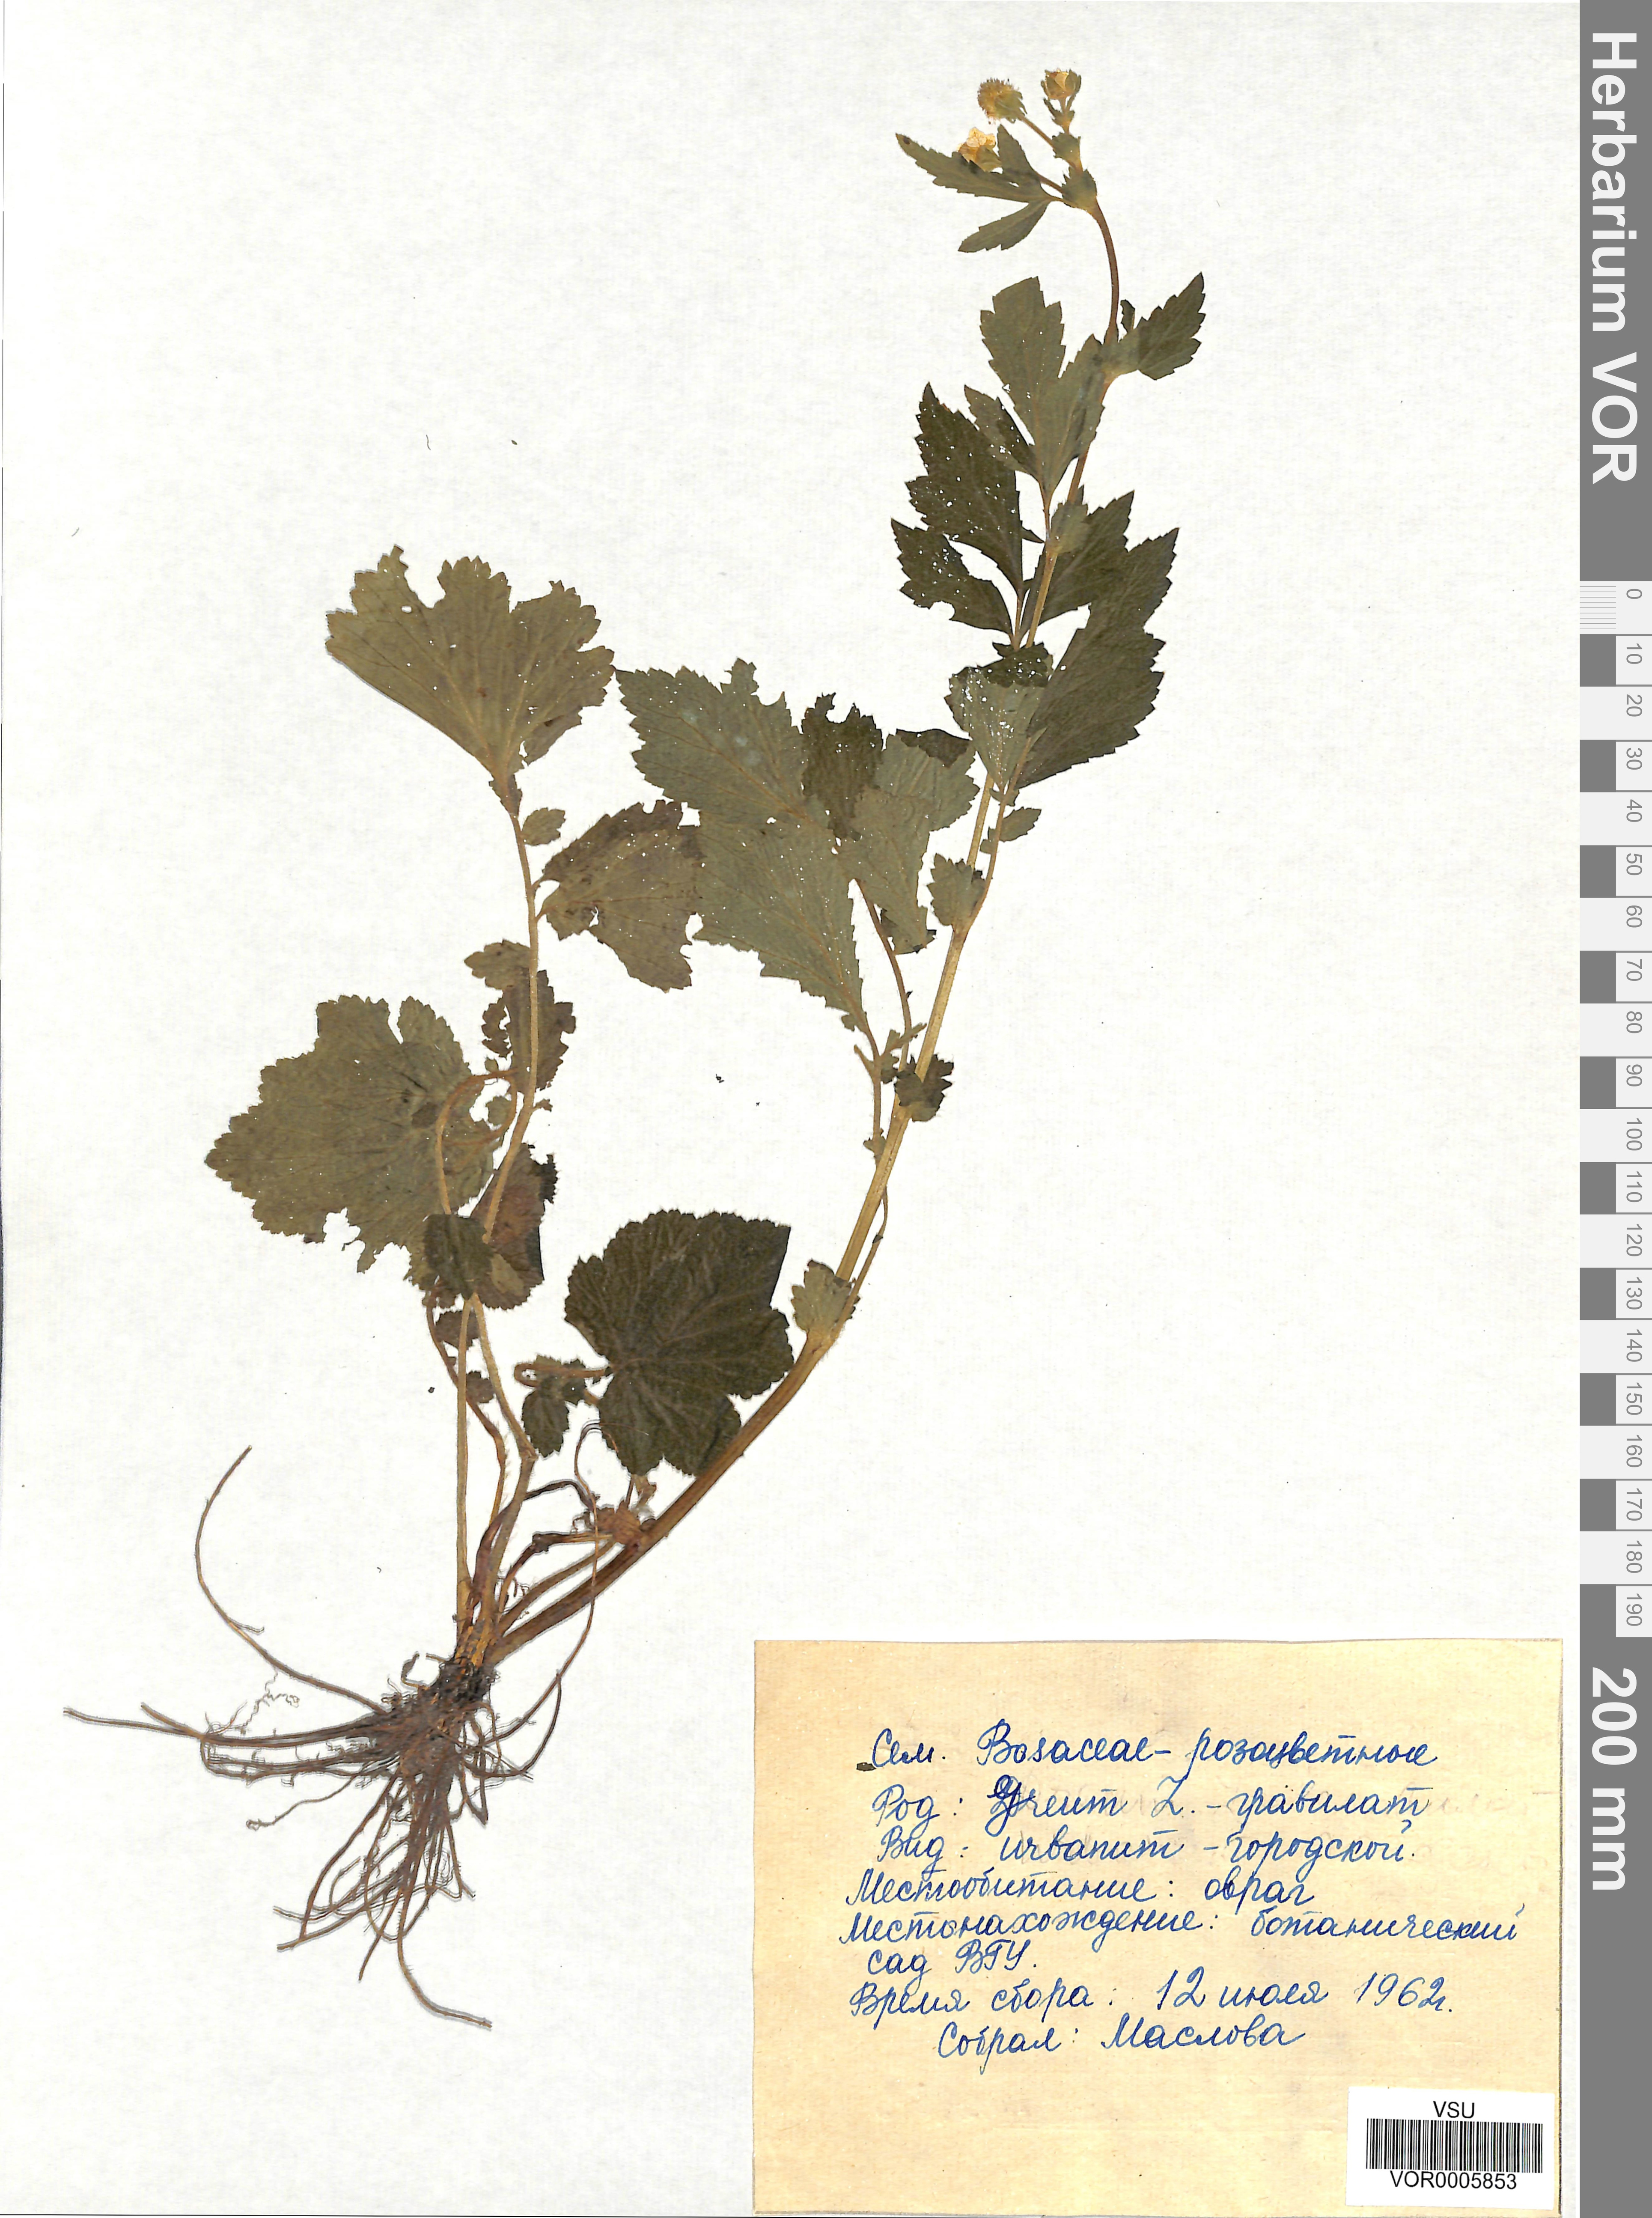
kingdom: Plantae
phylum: Tracheophyta
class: Magnoliopsida
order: Rosales
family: Rosaceae
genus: Geum
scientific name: Geum urbanum
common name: Wood avens
